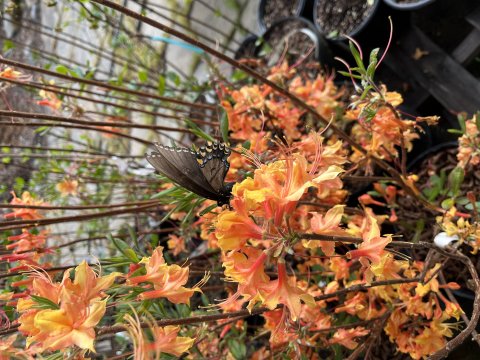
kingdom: Animalia
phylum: Arthropoda
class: Insecta
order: Lepidoptera
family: Papilionidae
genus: Pterourus
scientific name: Pterourus glaucus
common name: Eastern Tiger Swallowtail
